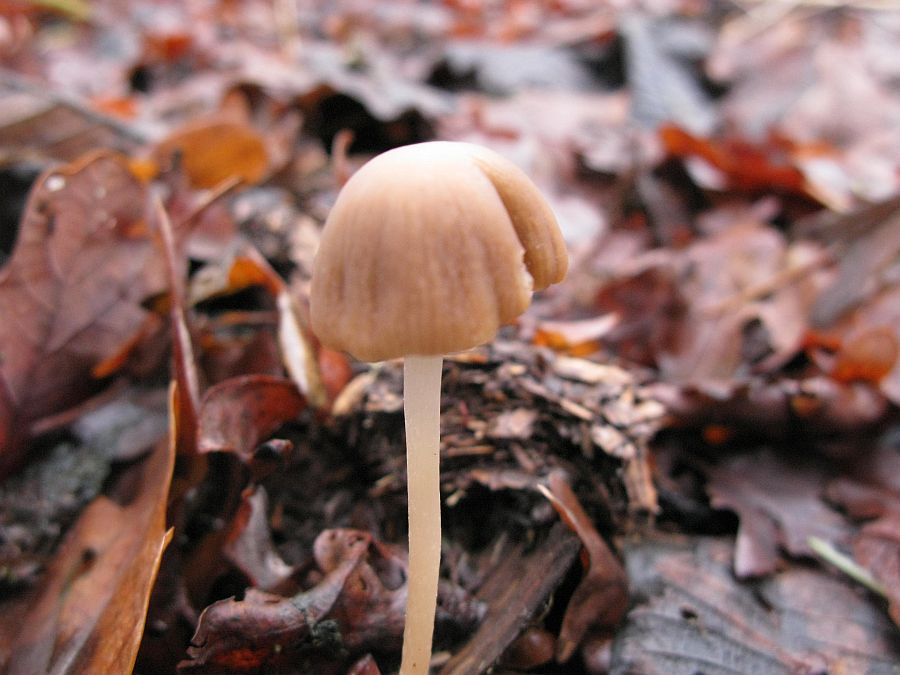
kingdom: Fungi
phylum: Basidiomycota
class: Agaricomycetes
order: Agaricales
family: Psathyrellaceae
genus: Psathyrella
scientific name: Psathyrella microrhiza
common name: rod-mørkhat
